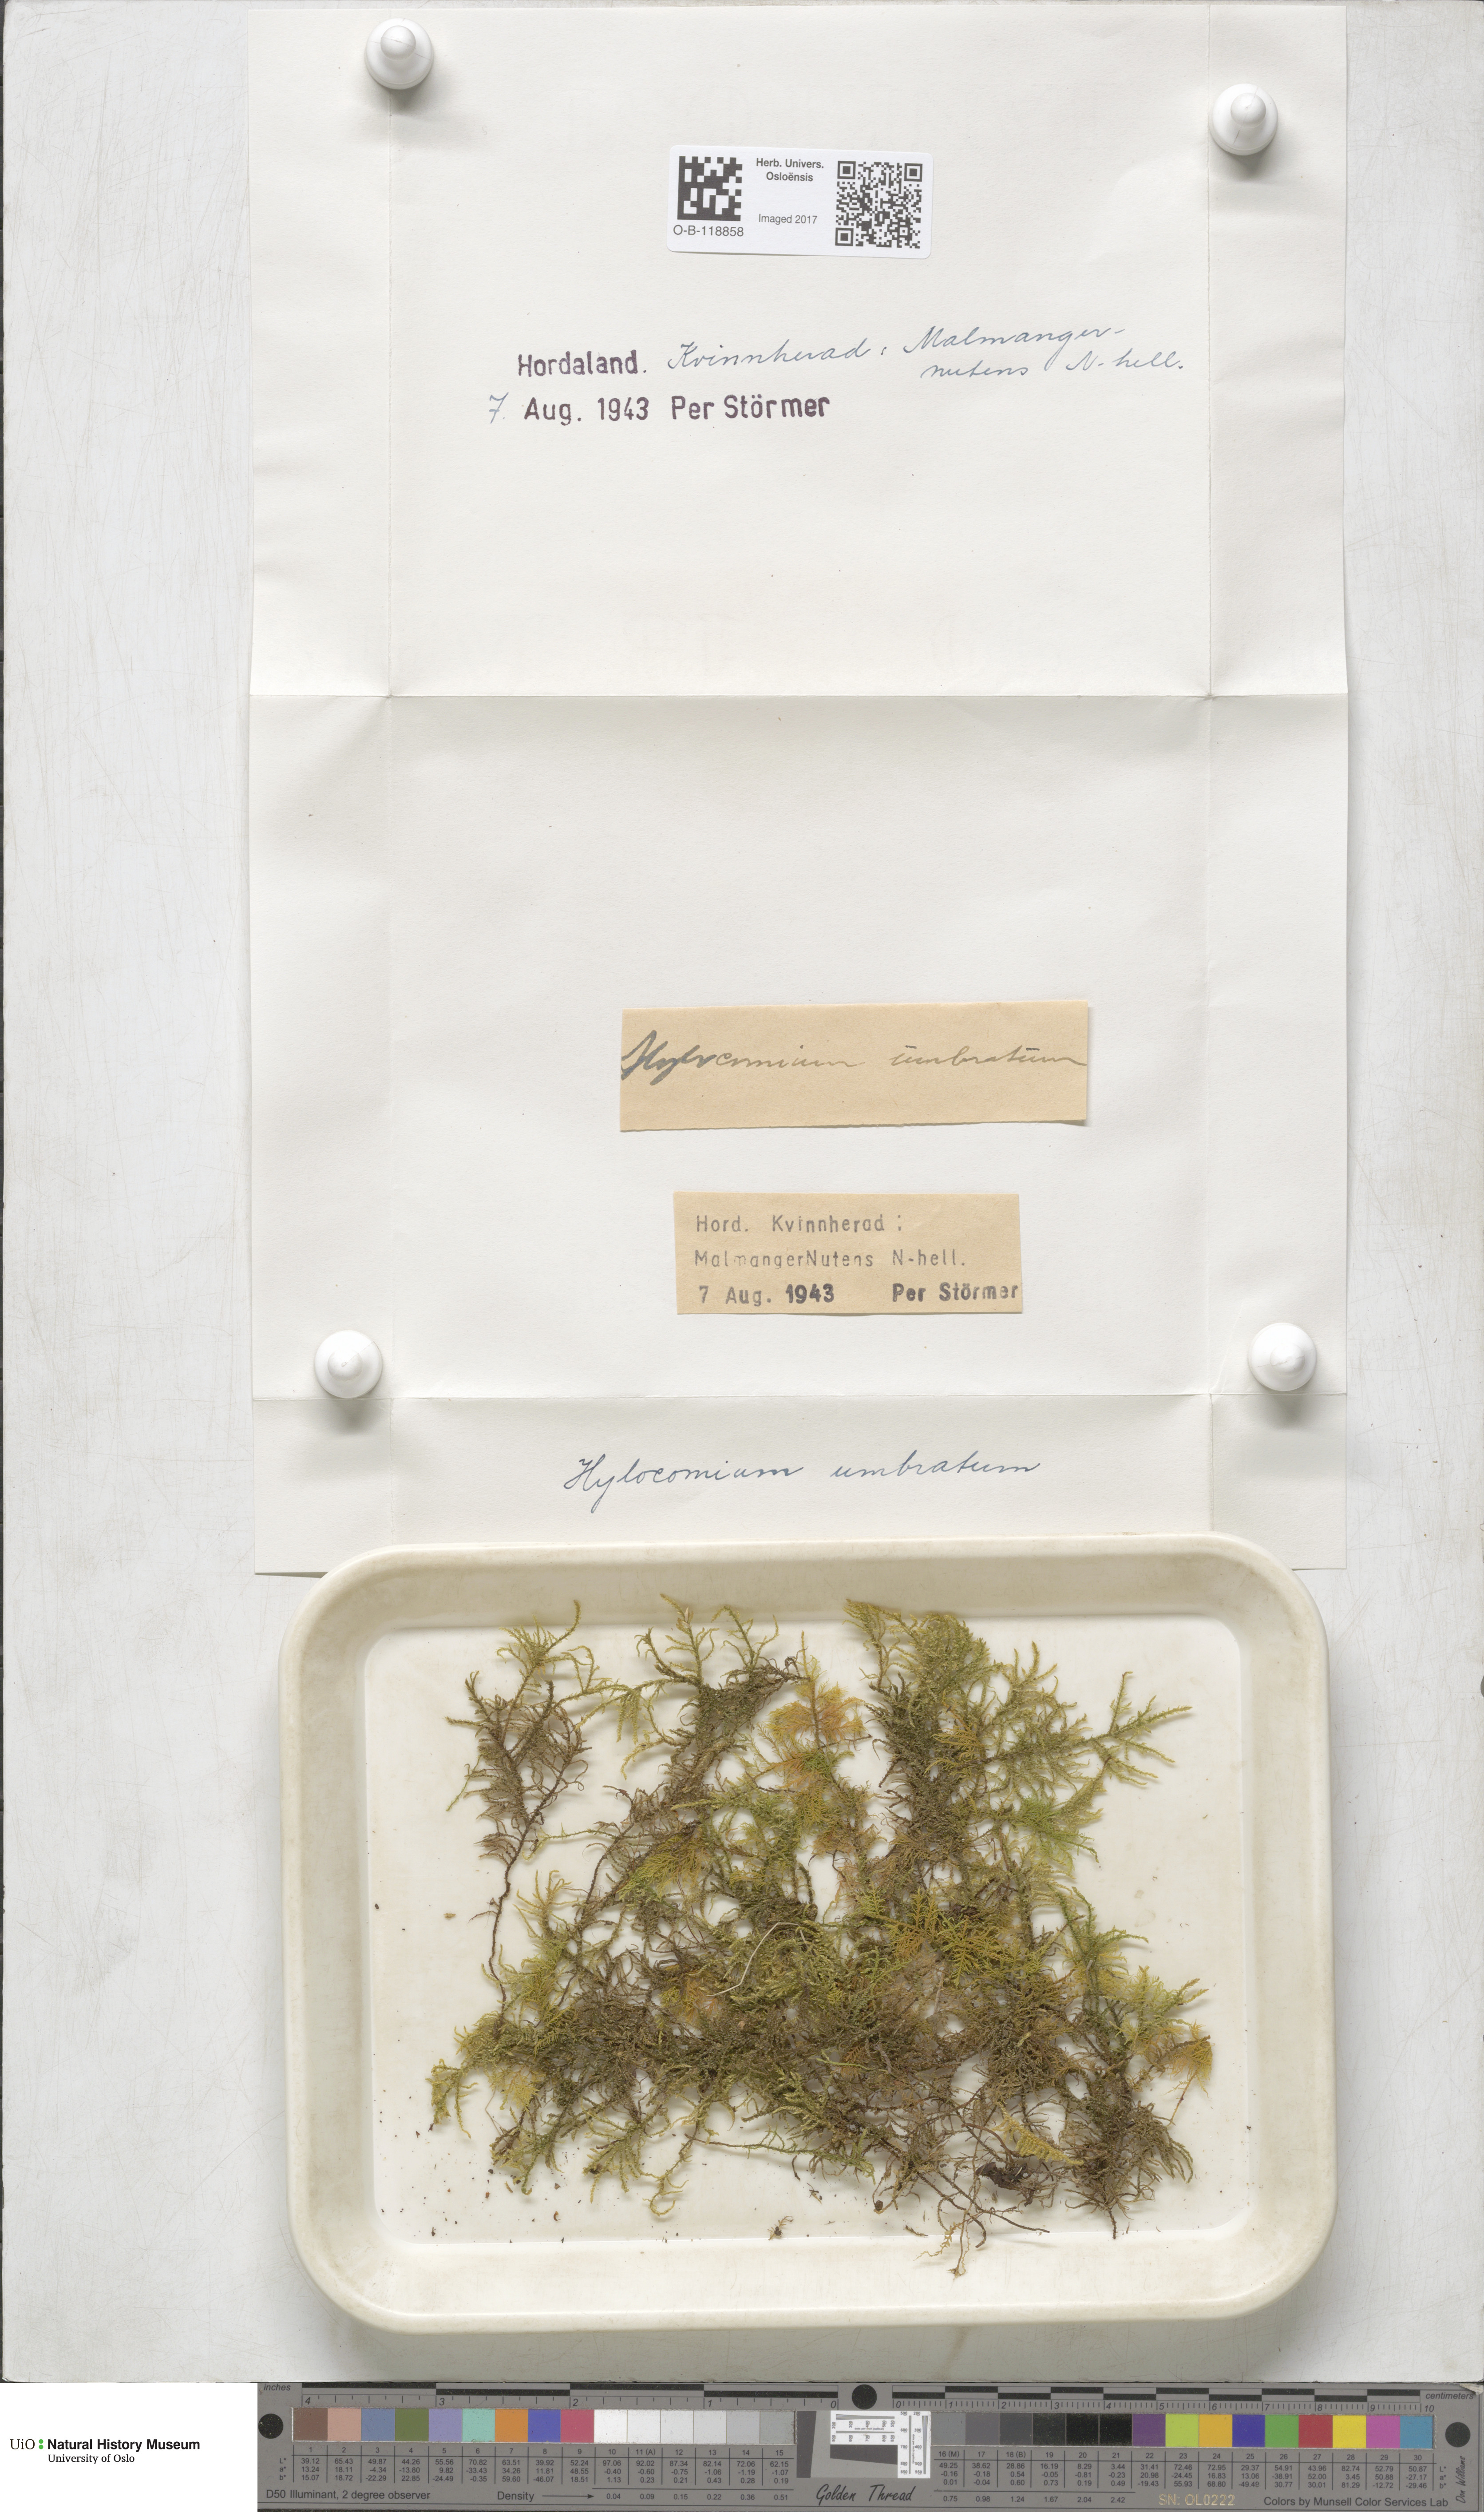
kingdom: Plantae
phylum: Bryophyta
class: Bryopsida
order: Hypnales
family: Hylocomiaceae
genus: Hylocomiastrum
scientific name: Hylocomiastrum umbratum
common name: Shaded woods moss
